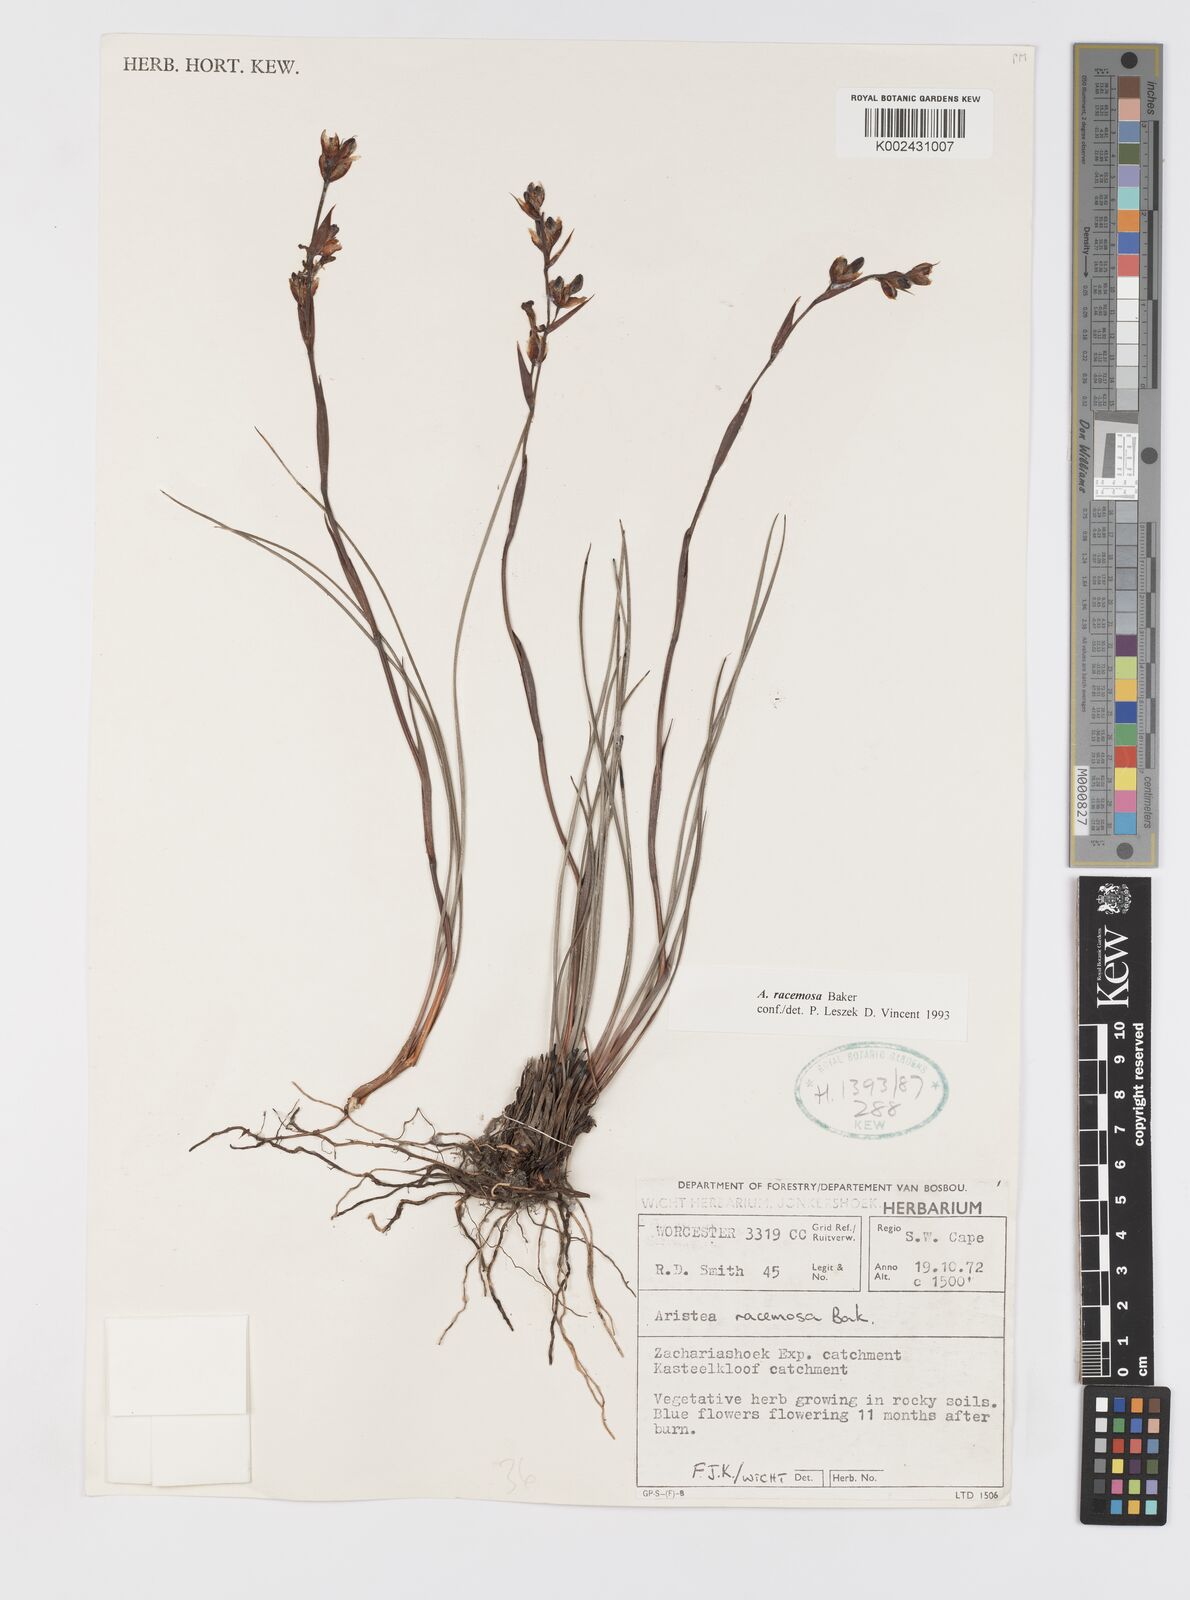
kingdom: Plantae
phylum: Tracheophyta
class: Liliopsida
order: Asparagales
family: Iridaceae
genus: Aristea
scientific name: Aristea racemosa
